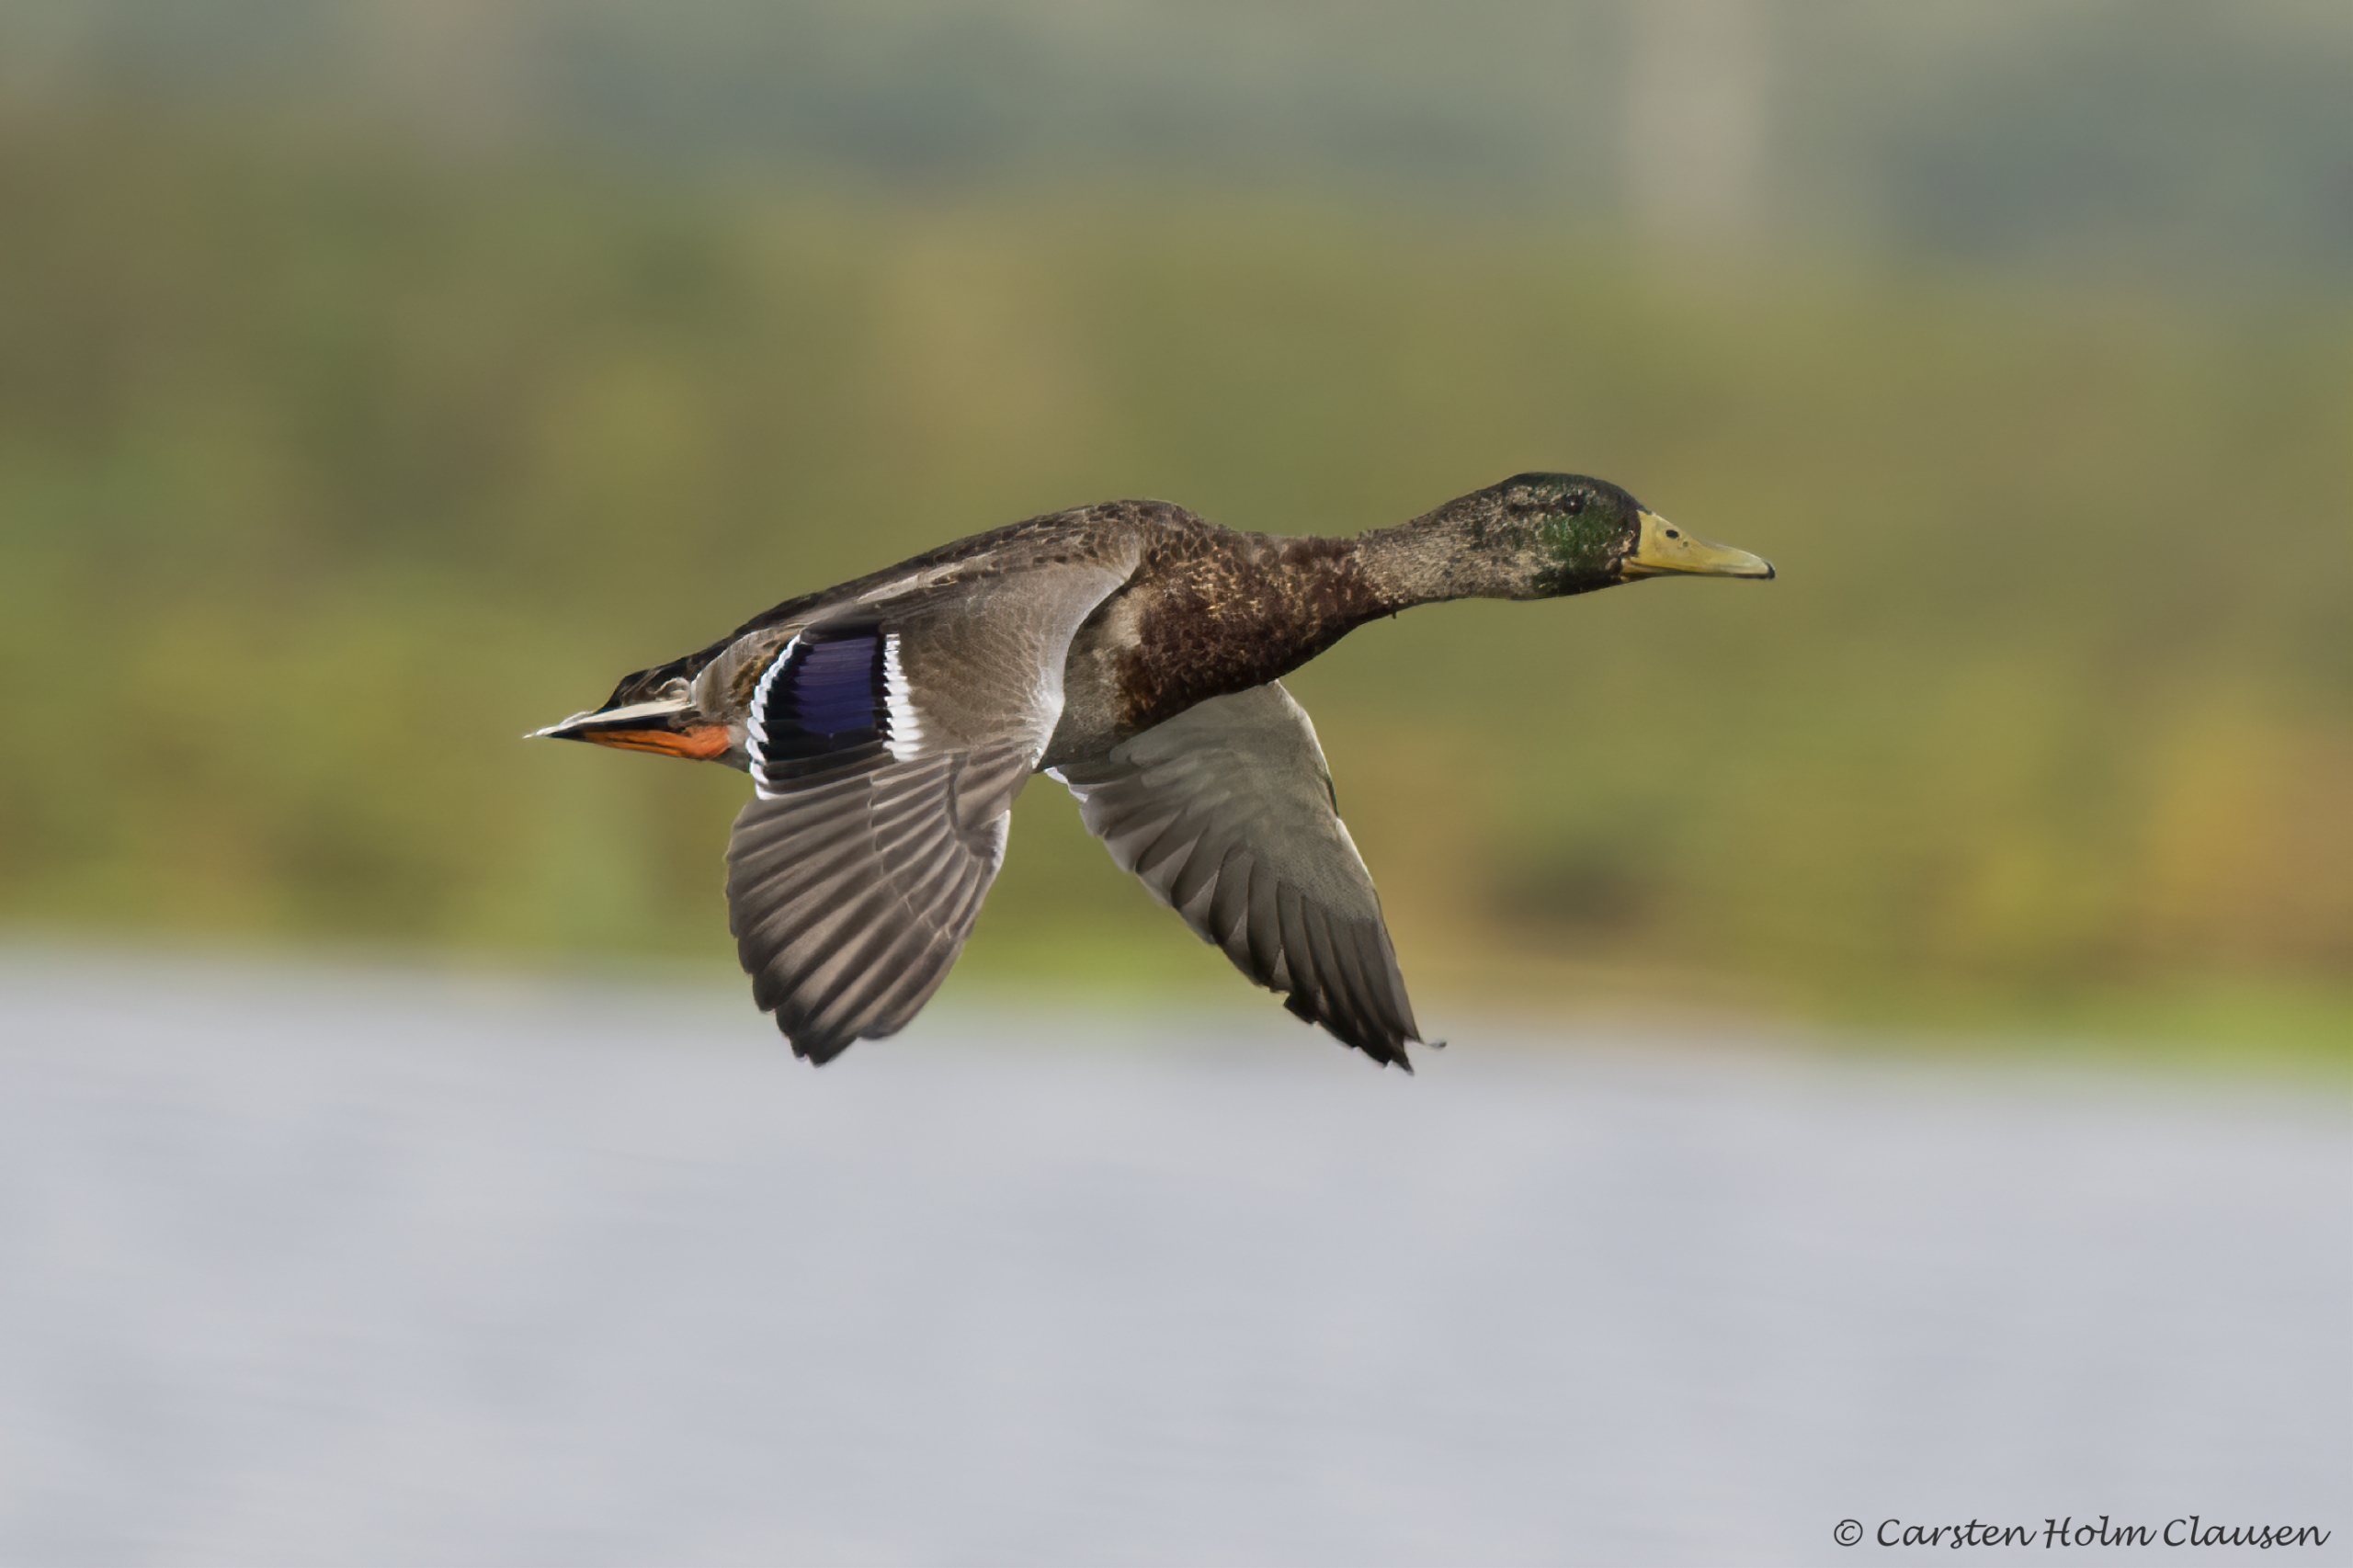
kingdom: Animalia
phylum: Chordata
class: Aves
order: Anseriformes
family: Anatidae
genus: Anas
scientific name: Anas platyrhynchos
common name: Gråand
